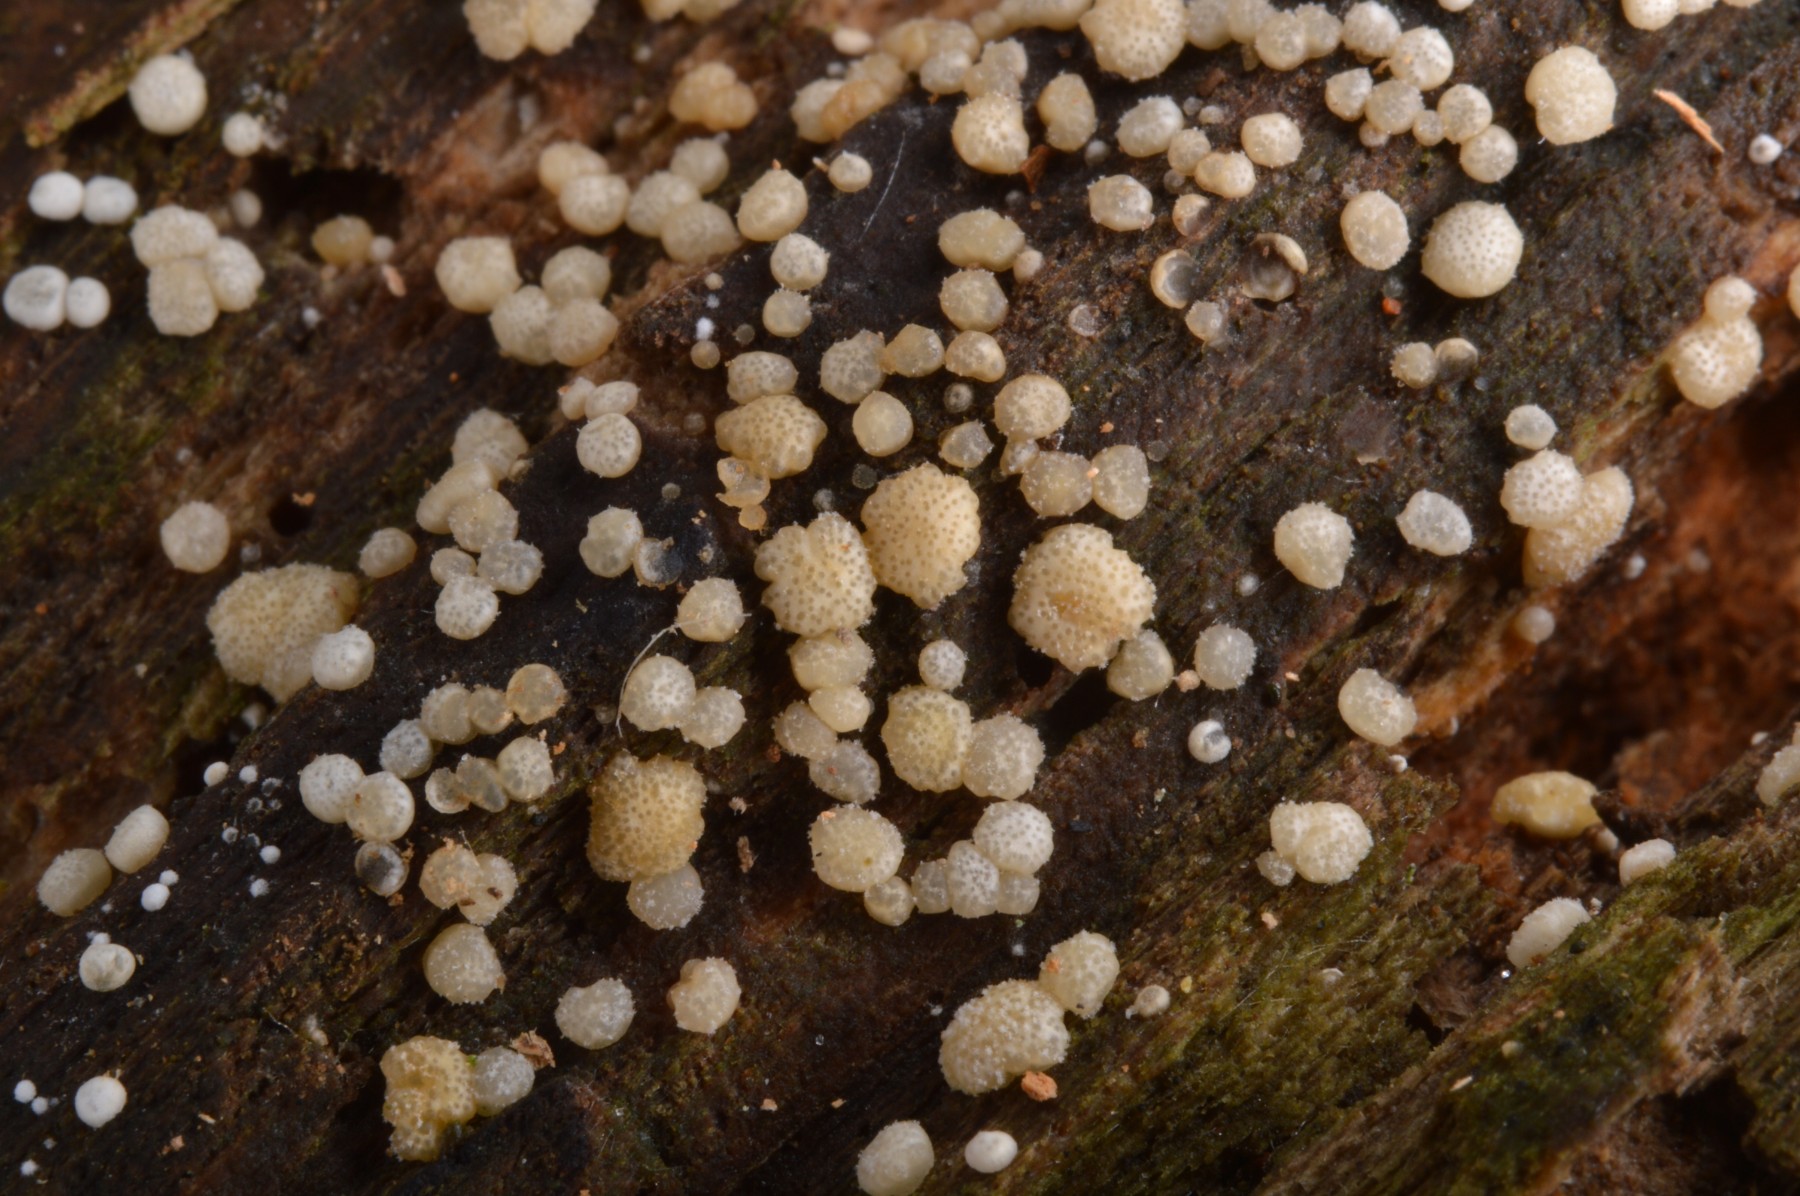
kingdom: Fungi
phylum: Ascomycota
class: Sordariomycetes
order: Hypocreales
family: Hypocreaceae
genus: Trichoderma
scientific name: Trichoderma
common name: kødkerne
